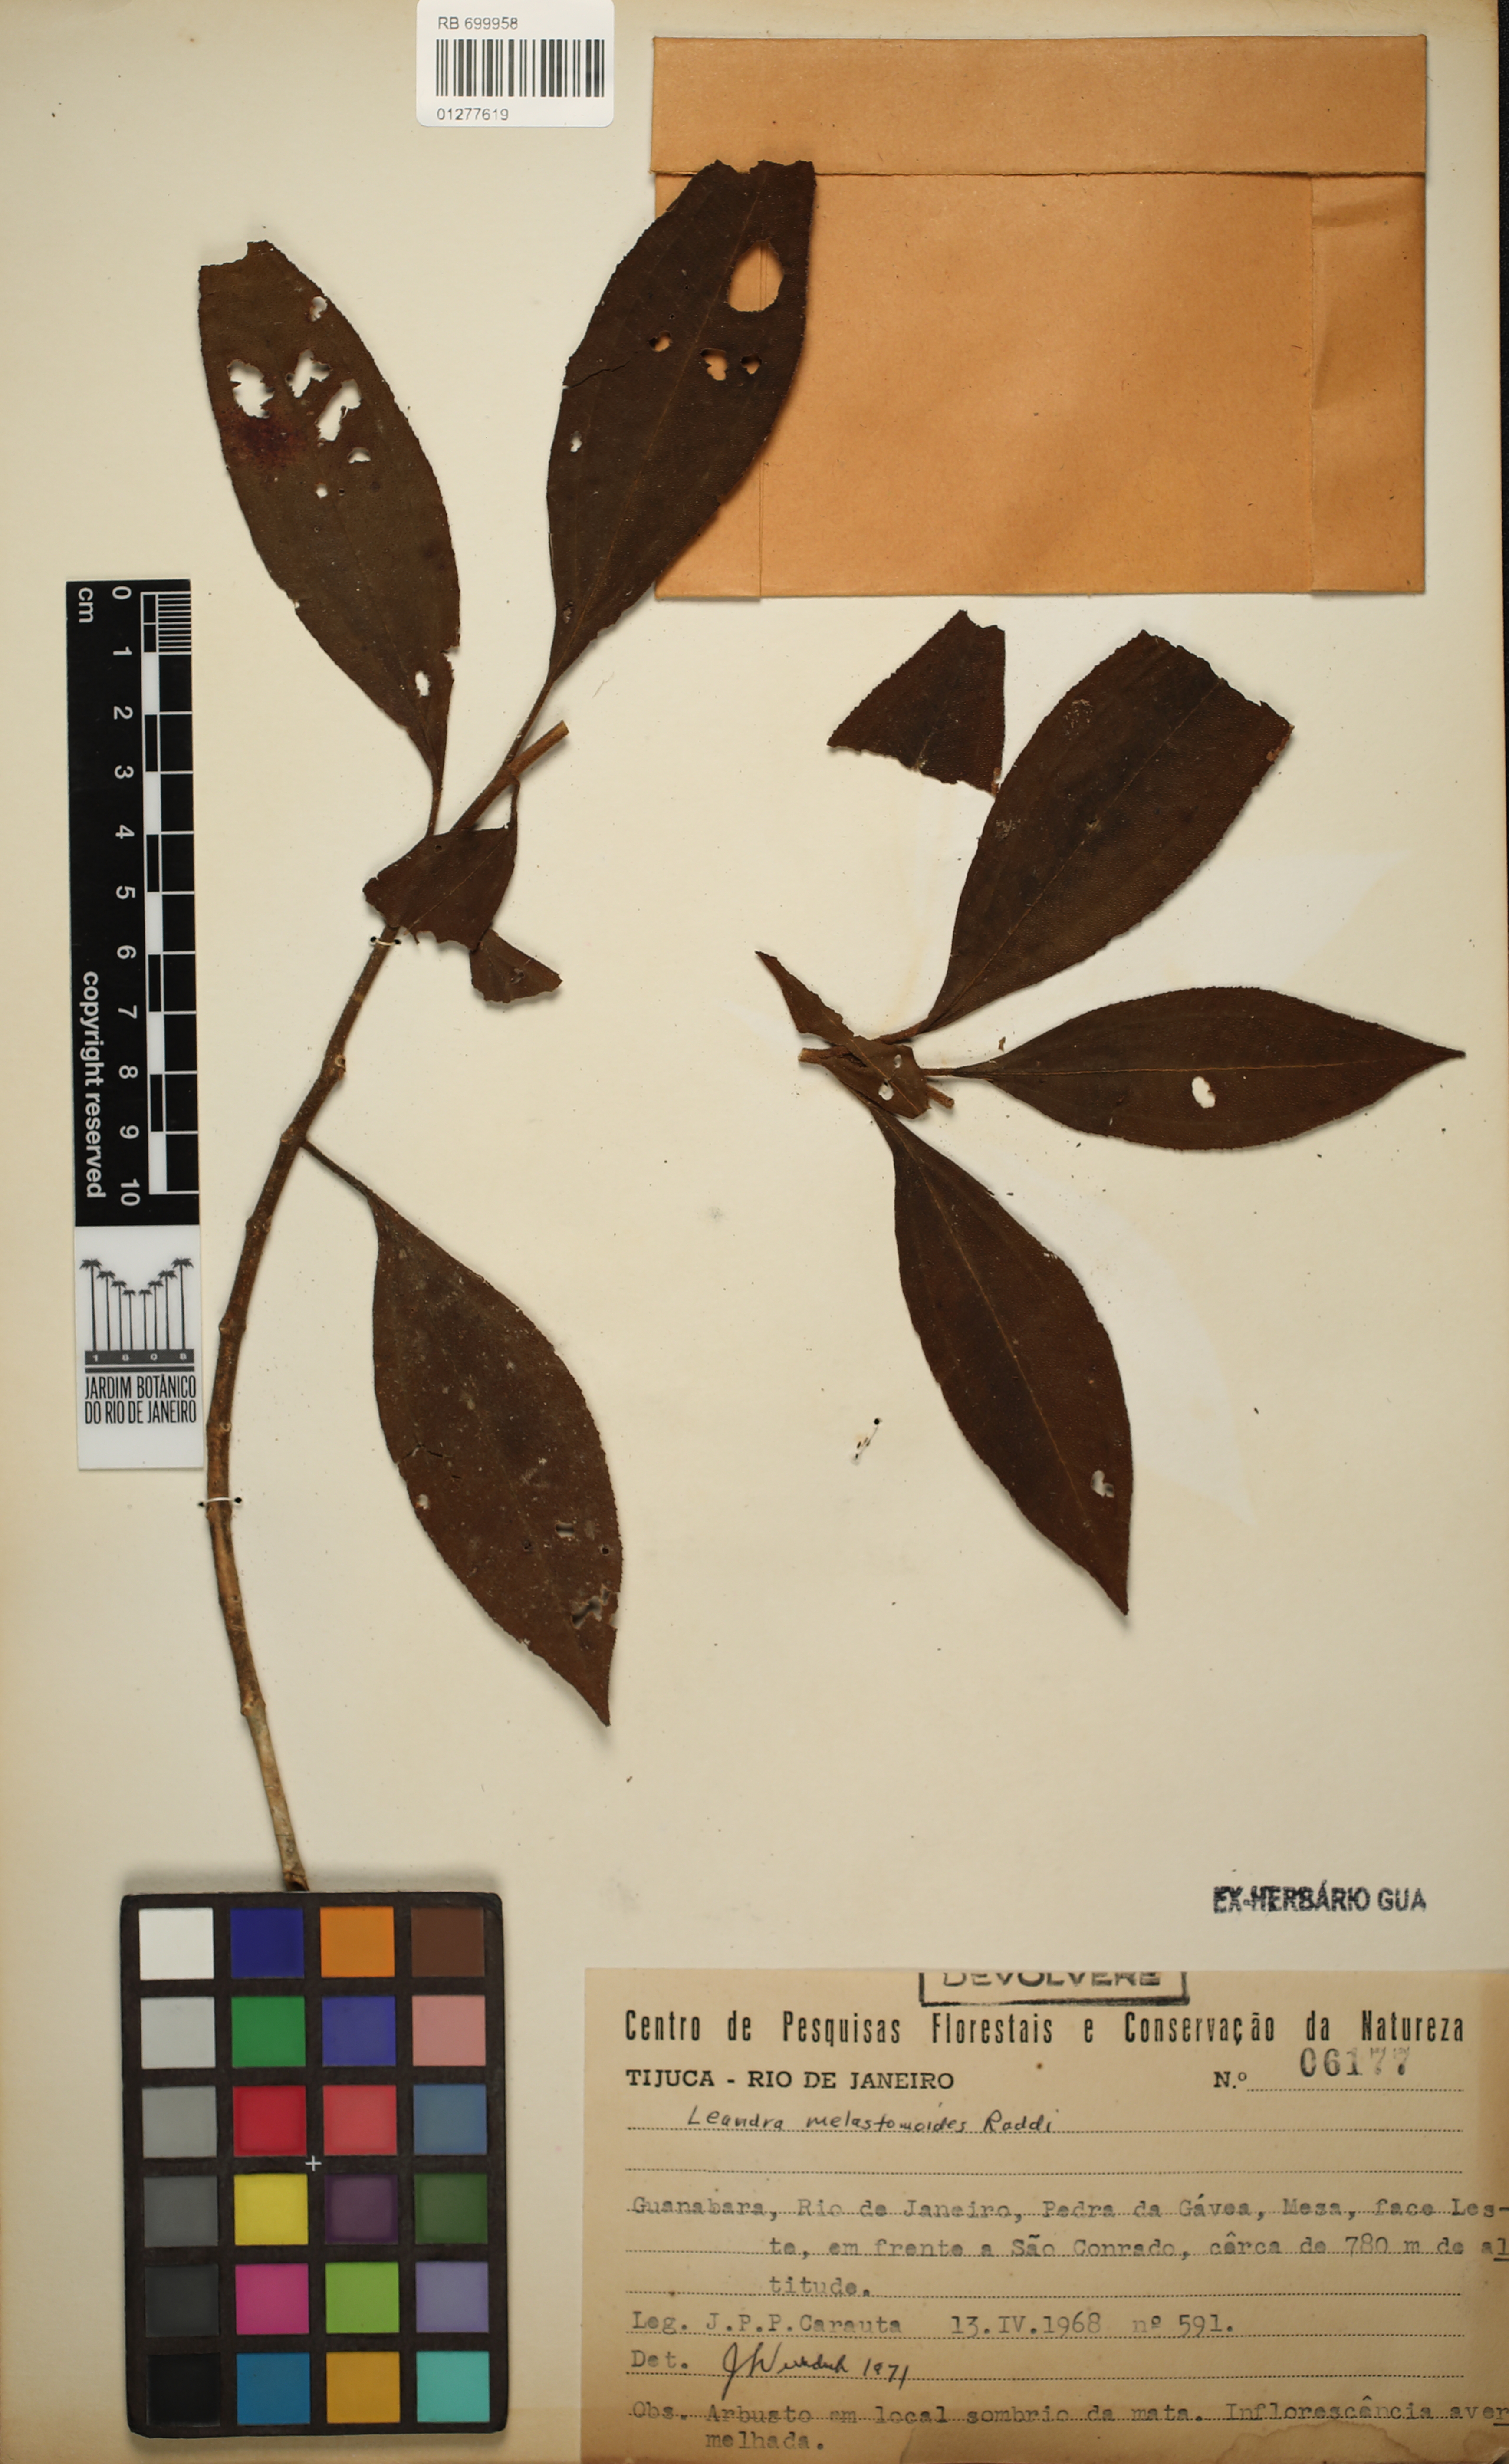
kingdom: Plantae
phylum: Tracheophyta
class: Magnoliopsida
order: Myrtales
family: Melastomataceae
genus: Miconia
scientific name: Miconia melastomoides
